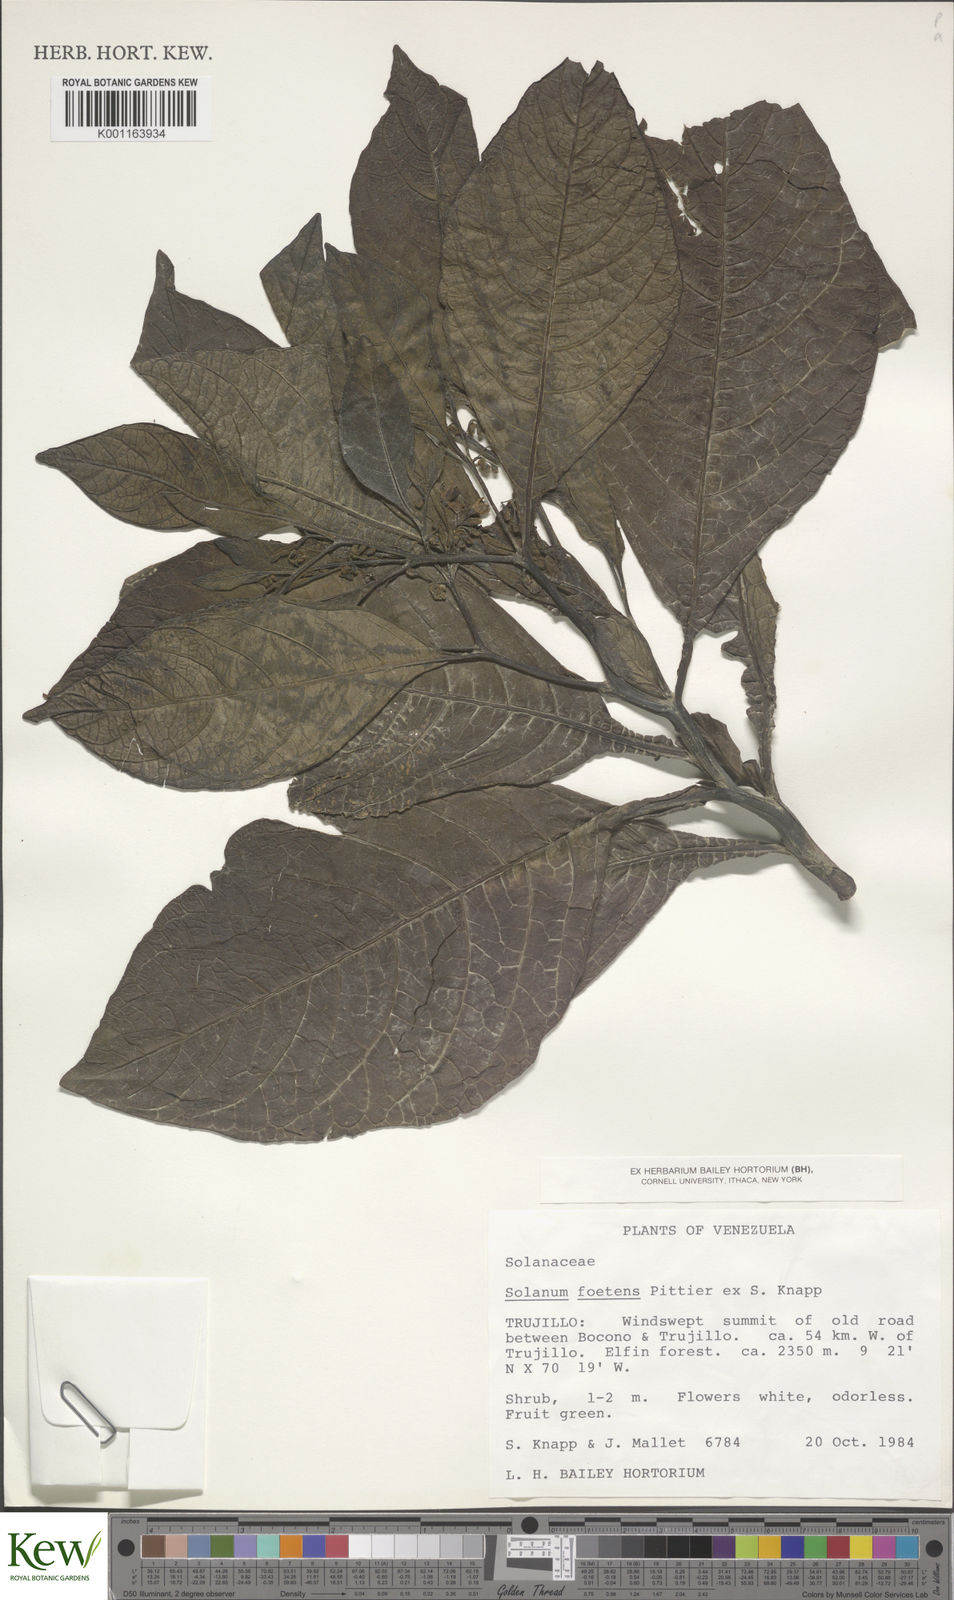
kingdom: Plantae
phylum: Tracheophyta
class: Magnoliopsida
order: Solanales
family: Solanaceae
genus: Solanum
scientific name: Solanum foetens
